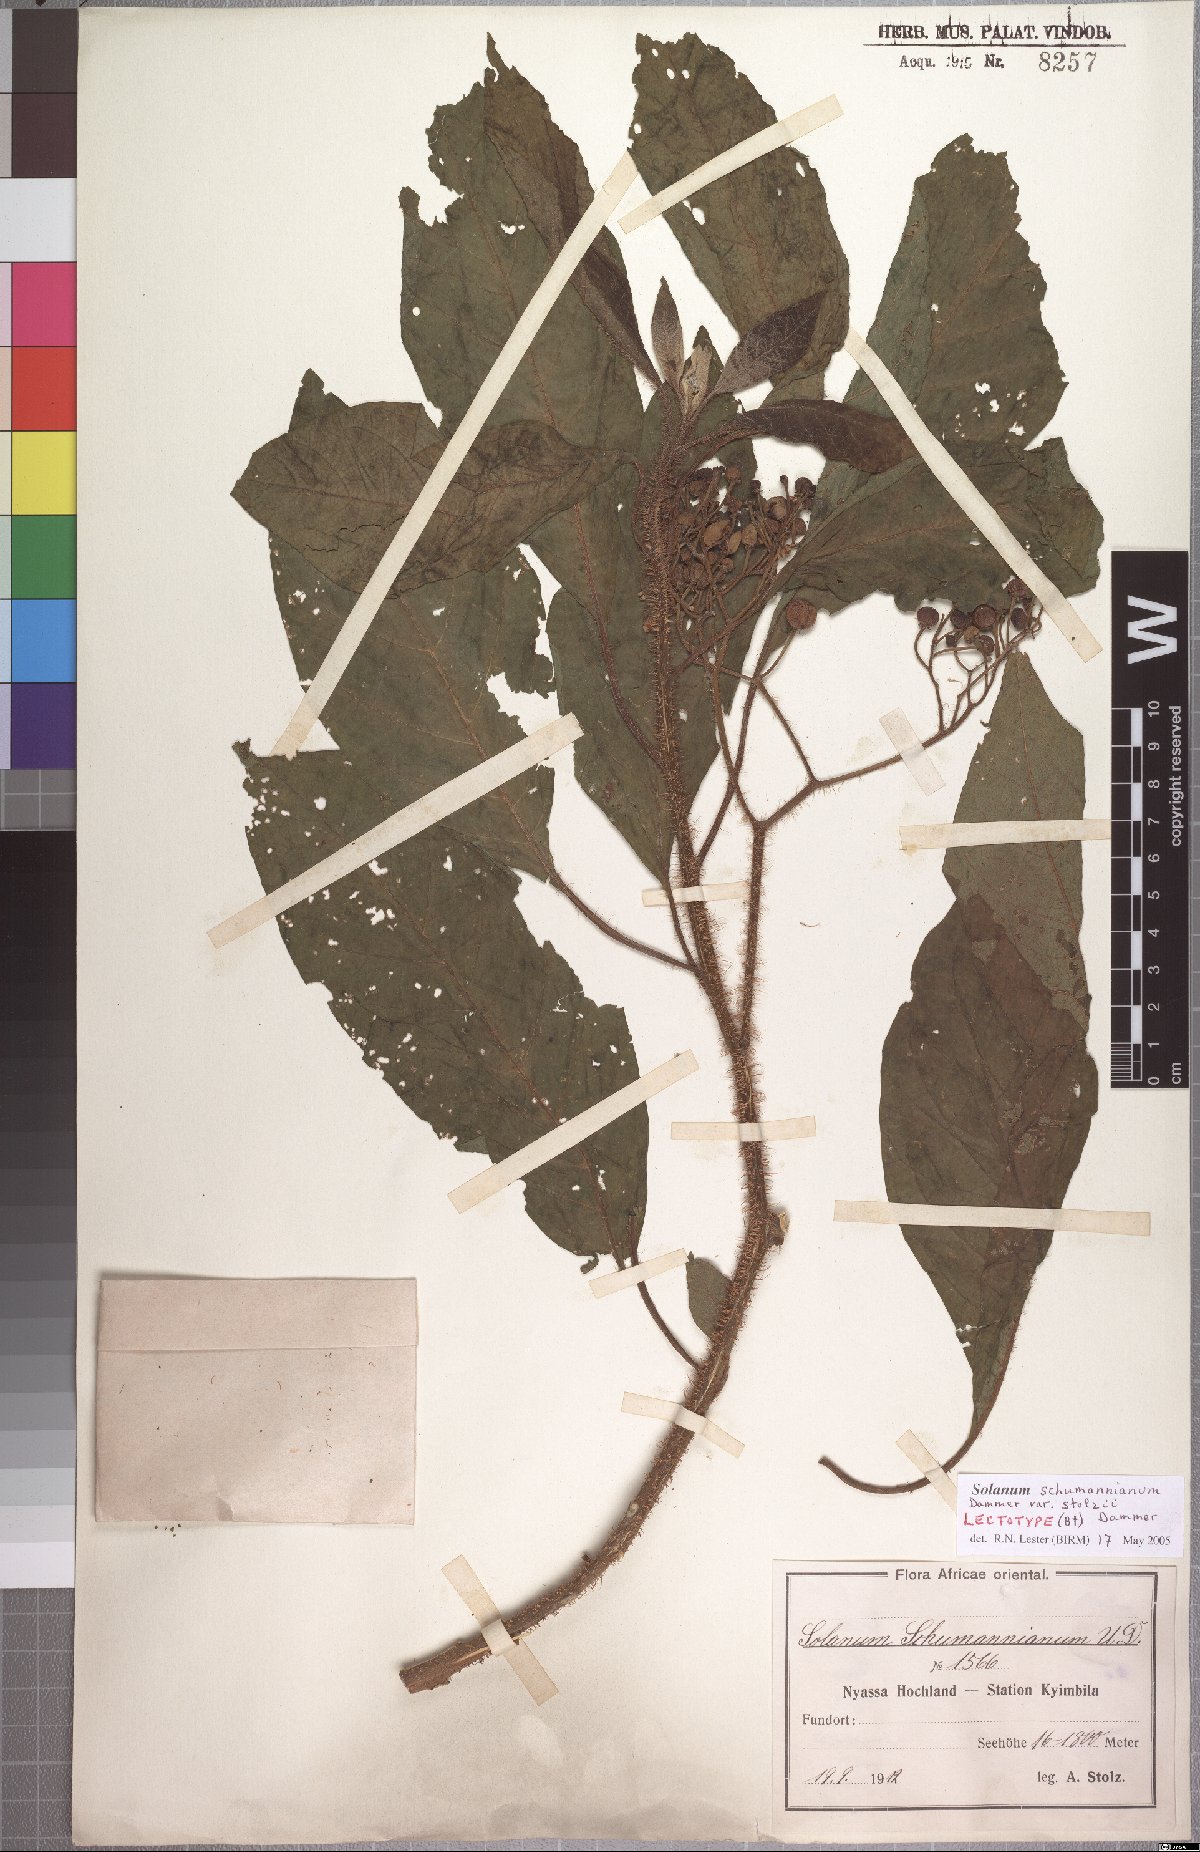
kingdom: Plantae
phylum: Tracheophyta
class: Magnoliopsida
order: Solanales
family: Solanaceae
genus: Solanum
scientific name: Solanum schumannianum
